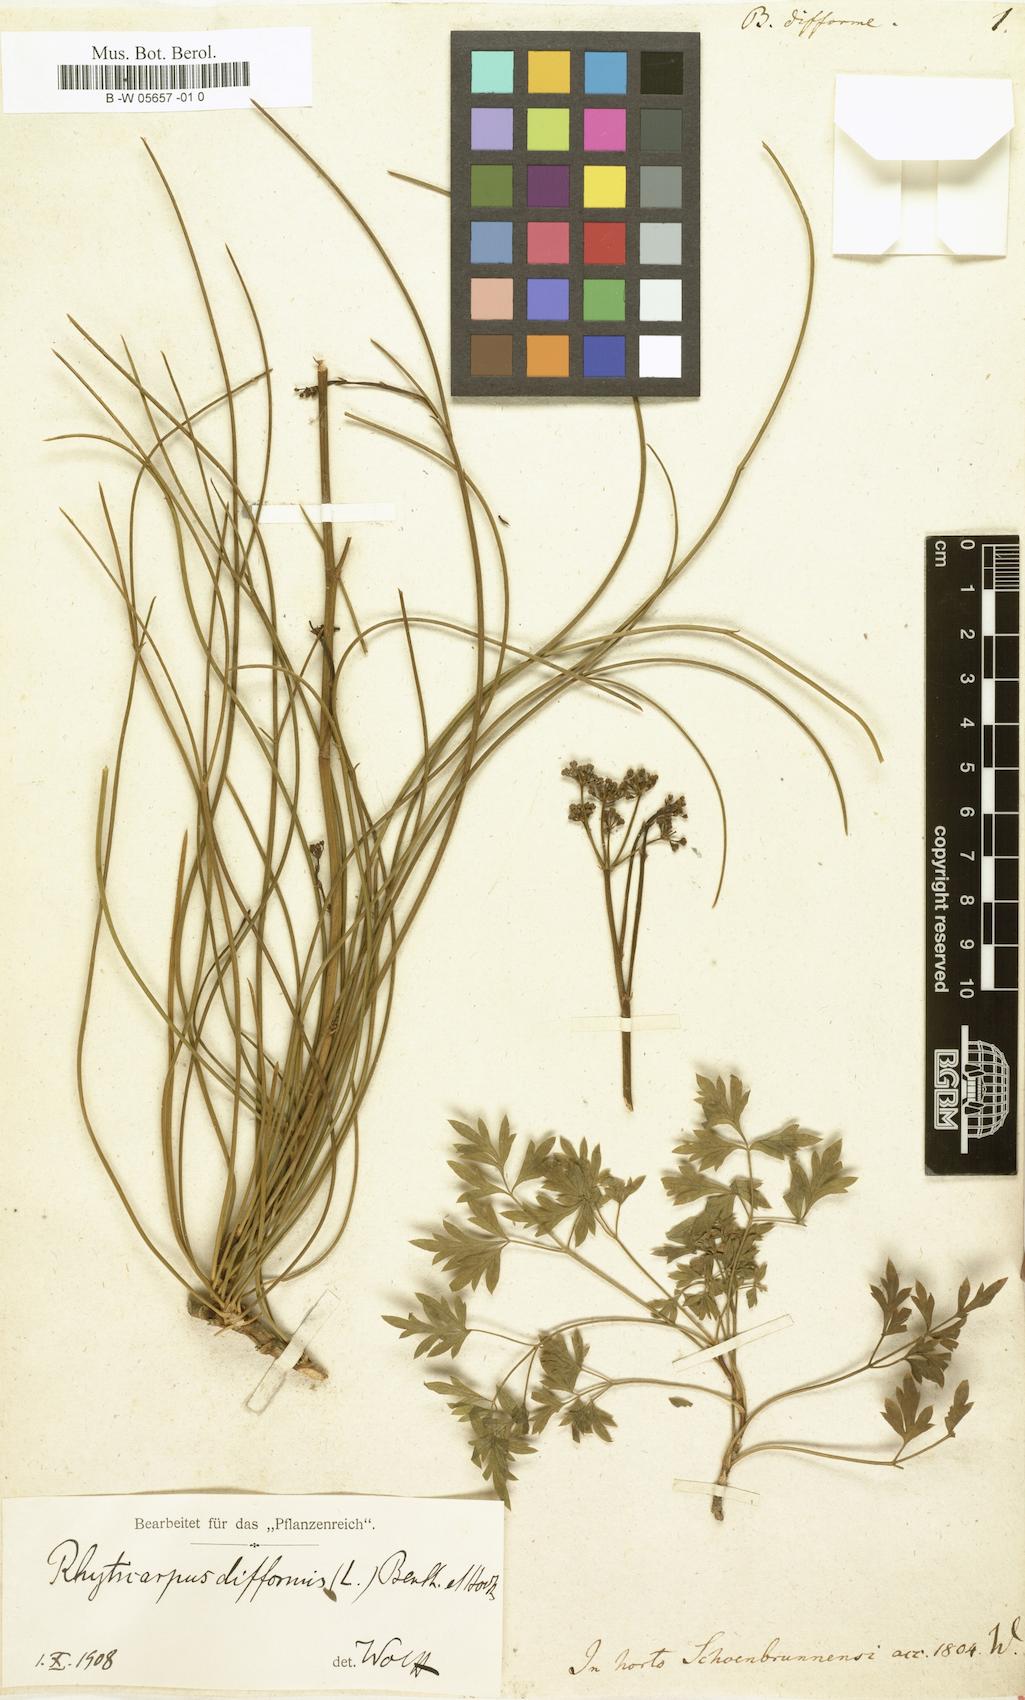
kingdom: Plantae
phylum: Tracheophyta
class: Magnoliopsida
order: Apiales
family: Apiaceae
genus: Anginon
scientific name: Anginon difforme
